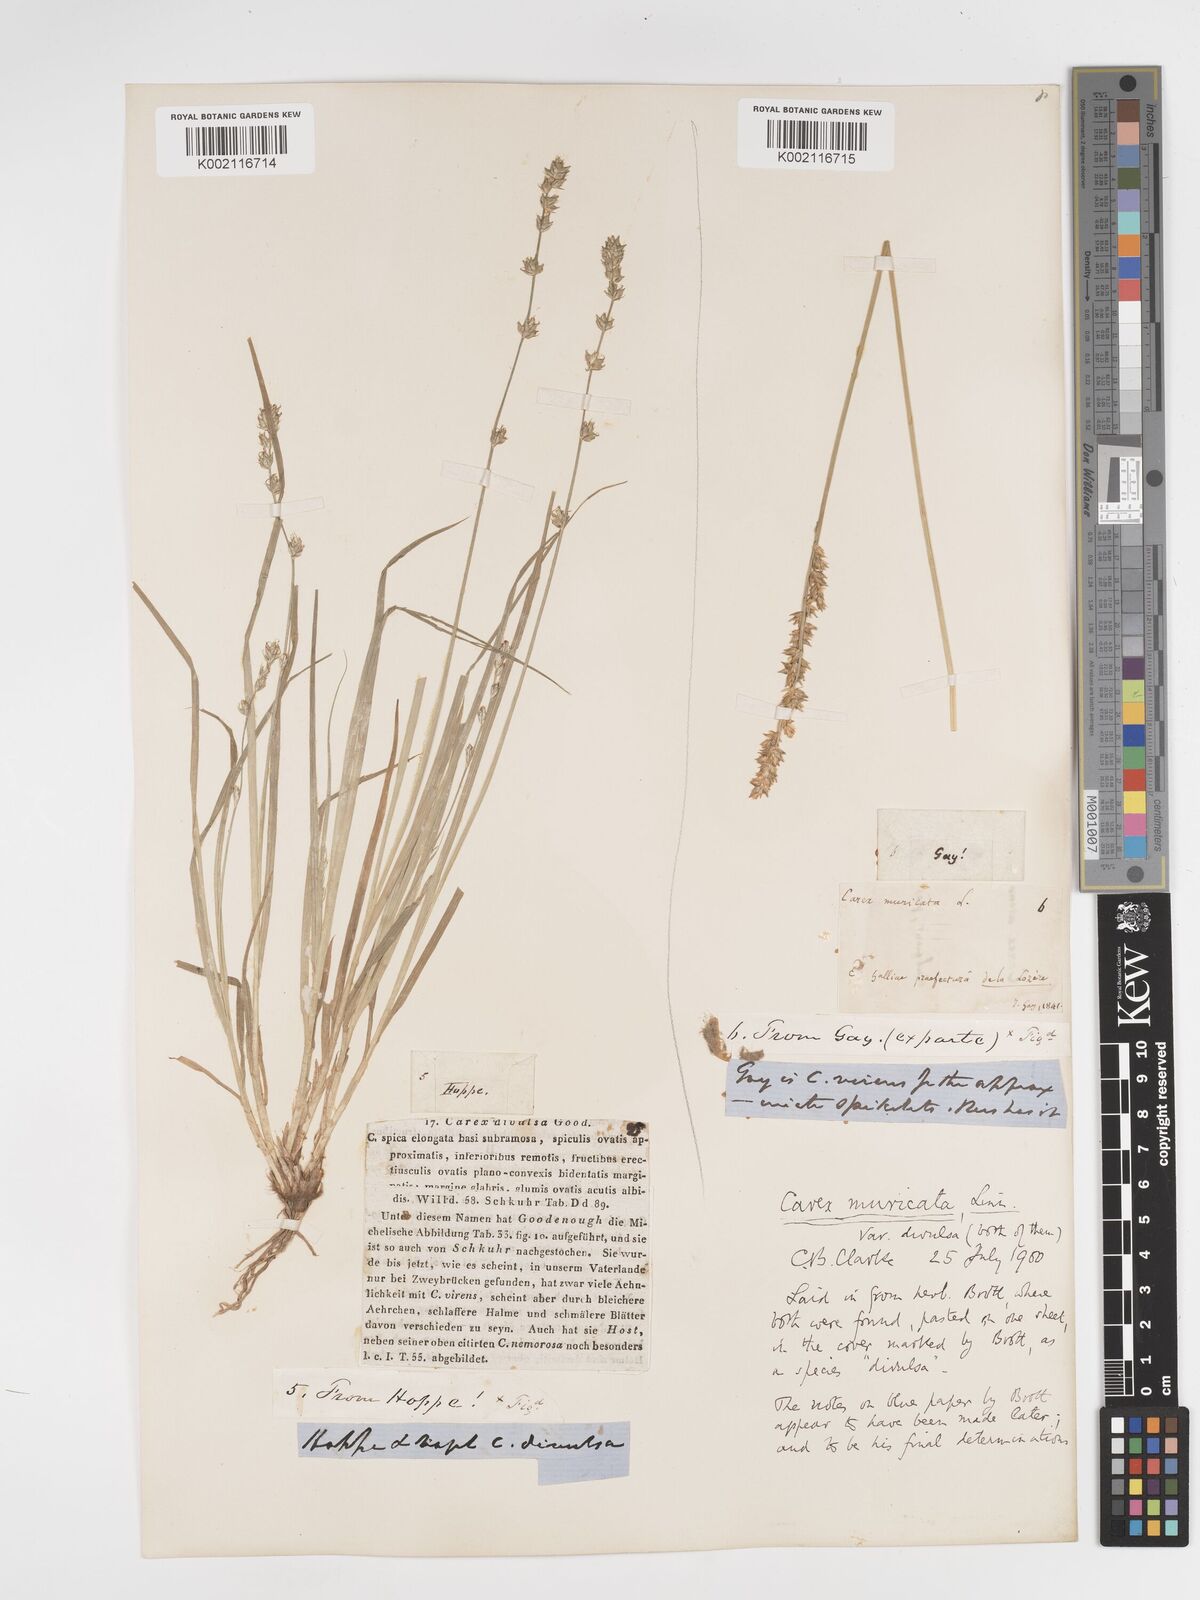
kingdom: Plantae
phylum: Tracheophyta
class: Liliopsida
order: Poales
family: Cyperaceae
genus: Carex
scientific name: Carex divulsa
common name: Grassland sedge
